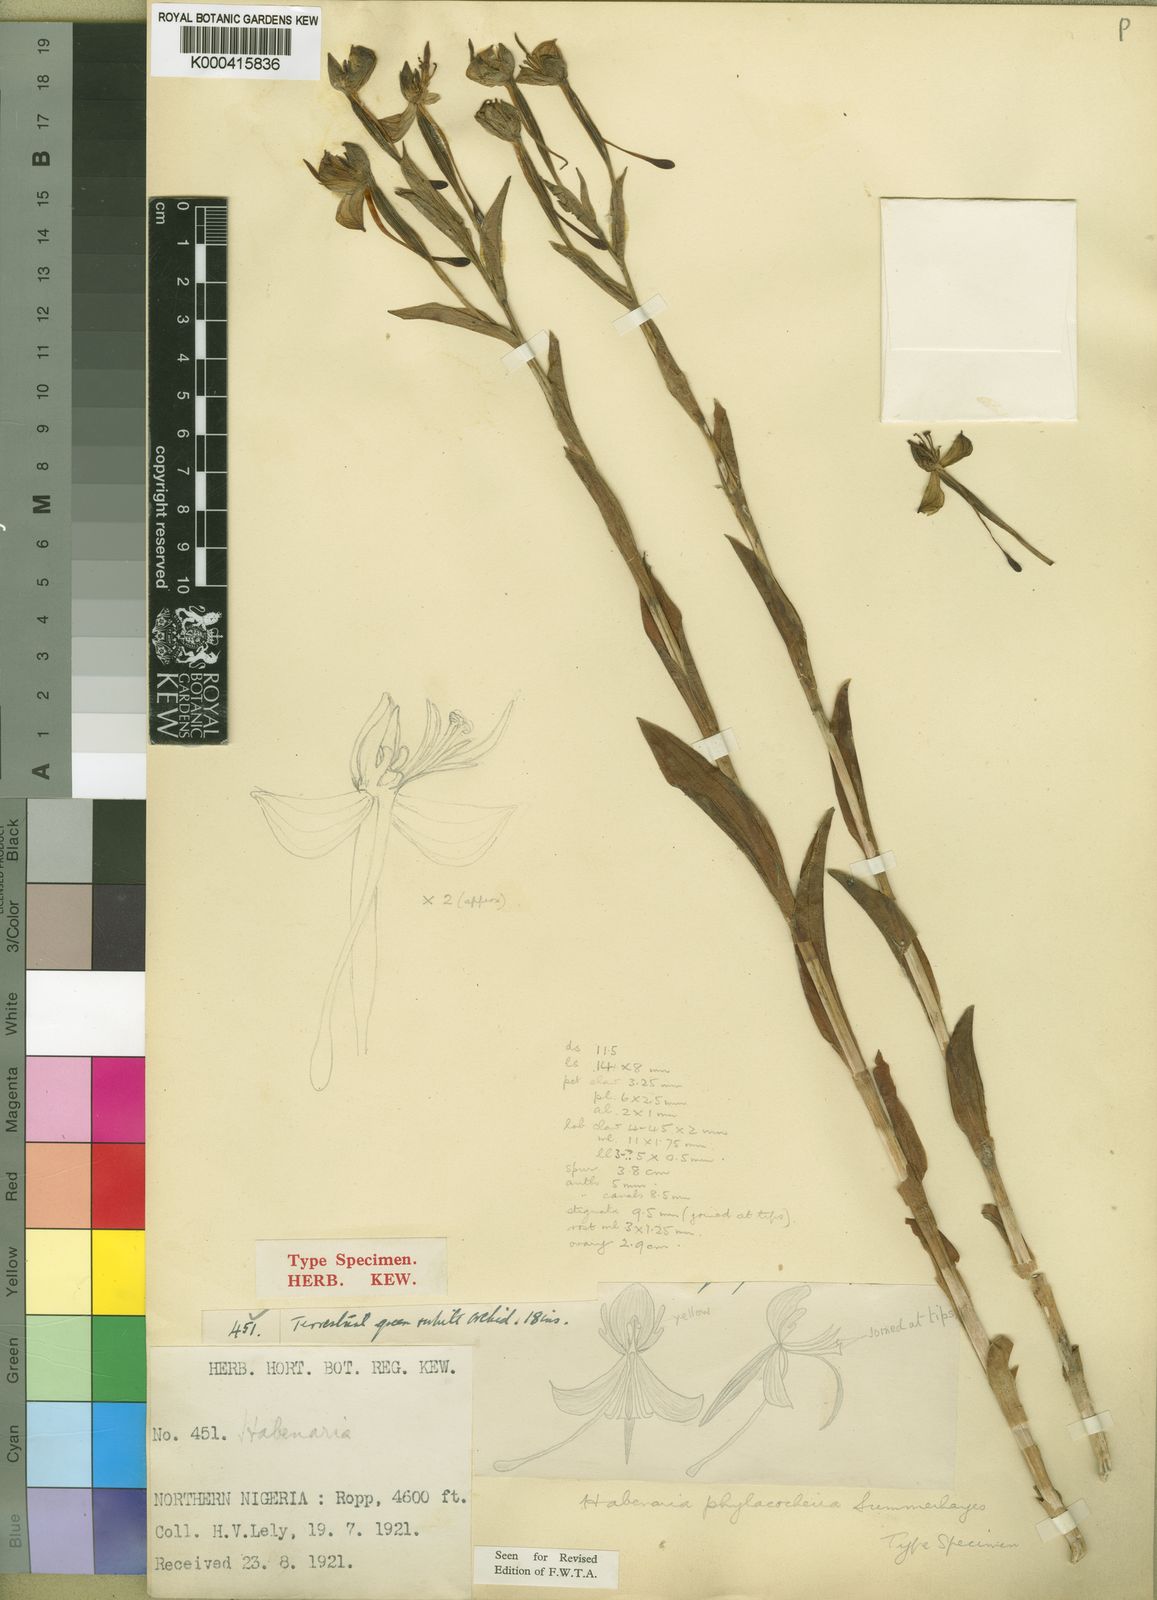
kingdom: Plantae
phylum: Tracheophyta
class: Liliopsida
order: Asparagales
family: Orchidaceae
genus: Habenaria
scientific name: Habenaria phylacocheira
